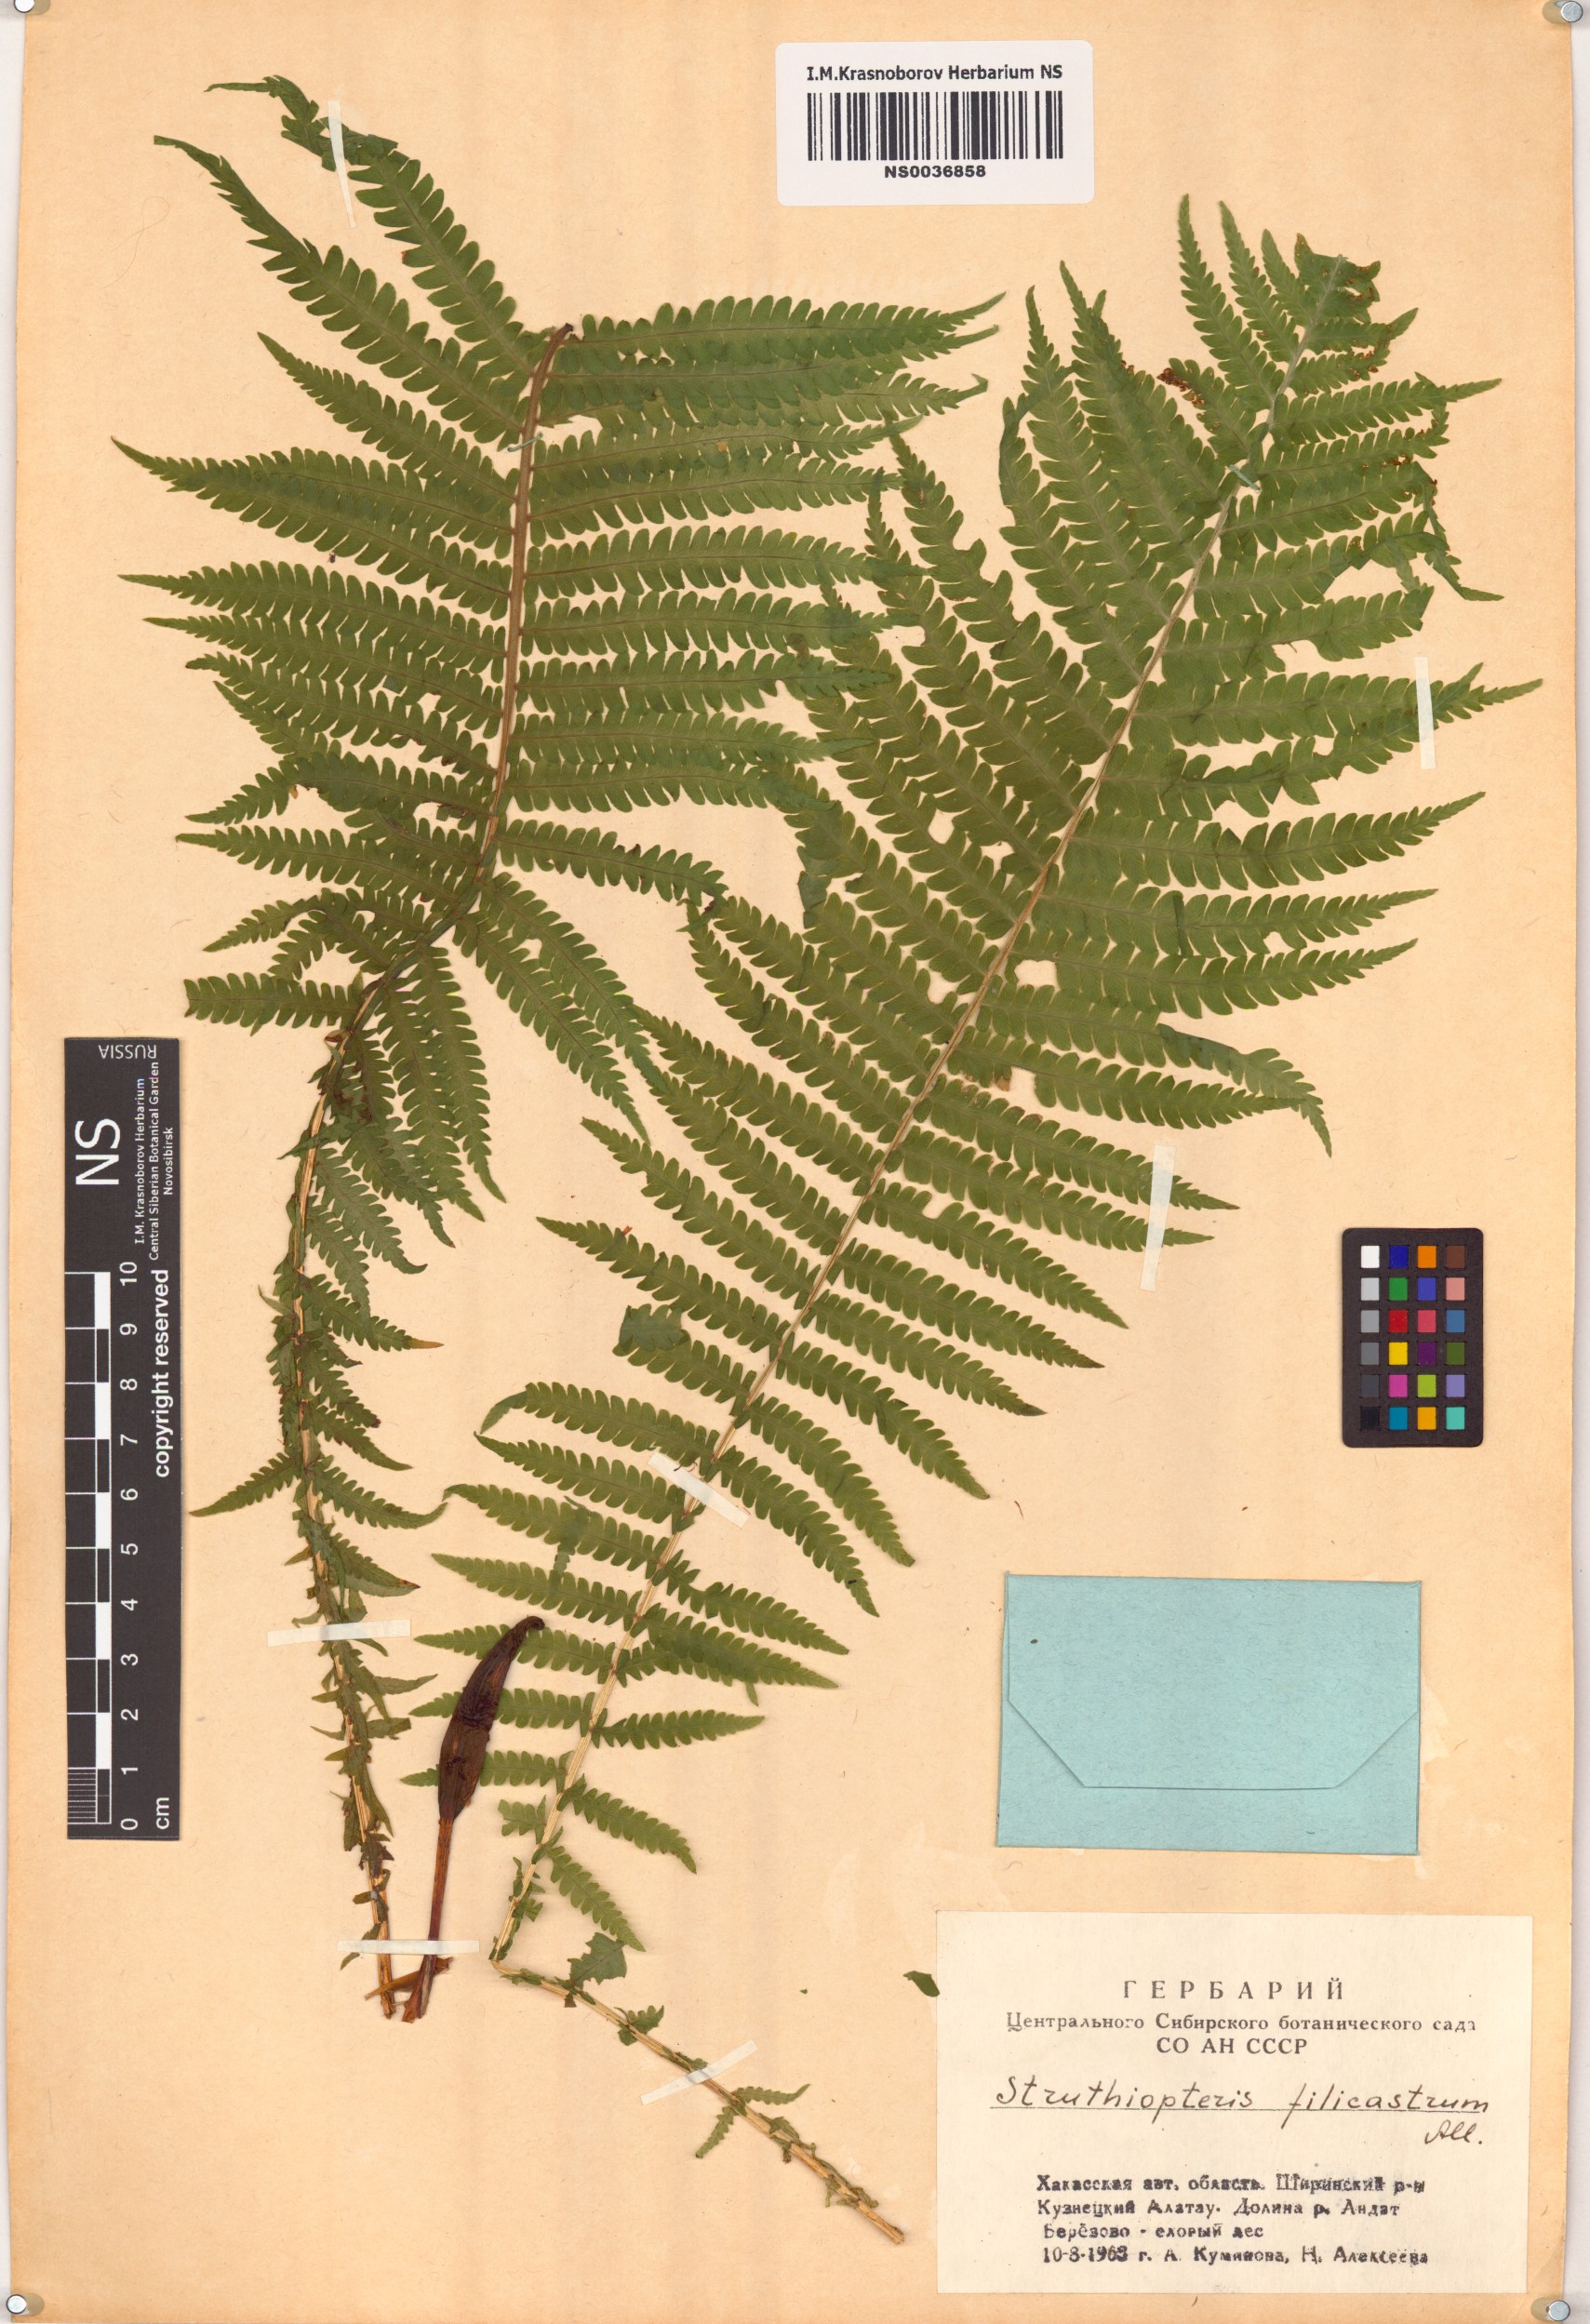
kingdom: Plantae
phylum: Tracheophyta
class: Polypodiopsida
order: Polypodiales
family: Onocleaceae
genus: Matteuccia
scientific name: Matteuccia struthiopteris
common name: Ostrich fern
